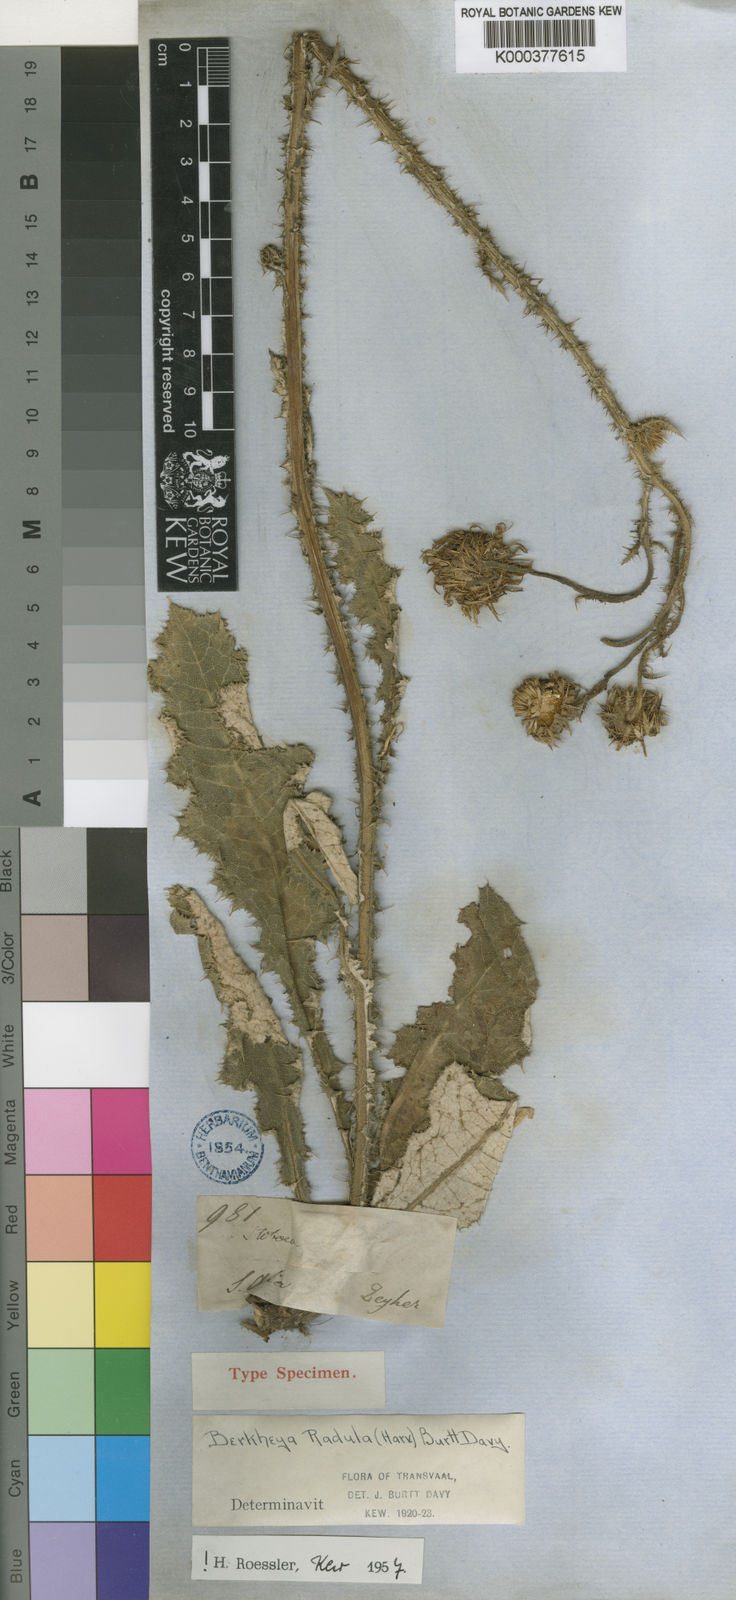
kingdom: Plantae
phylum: Tracheophyta
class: Magnoliopsida
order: Asterales
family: Asteraceae
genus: Berkheya
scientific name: Berkheya radula
